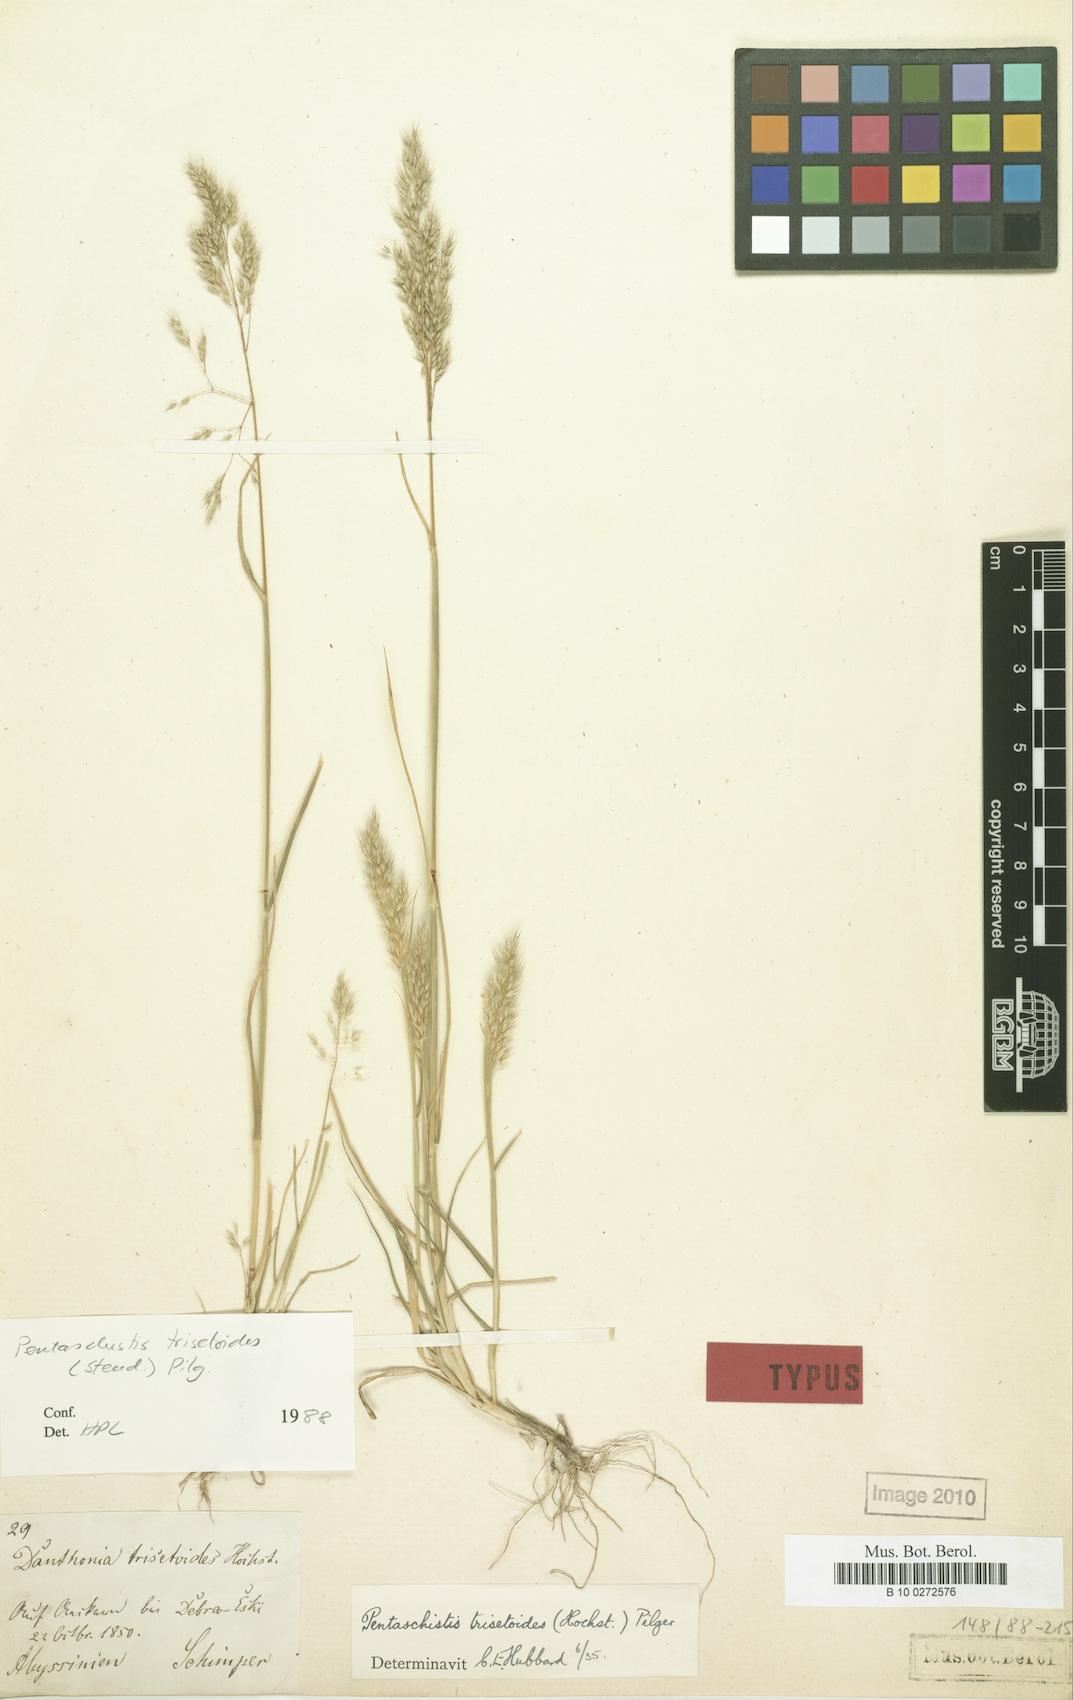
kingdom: Plantae
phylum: Tracheophyta
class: Liliopsida
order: Poales
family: Poaceae
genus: Pentameris
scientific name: Pentameris trisetoides
